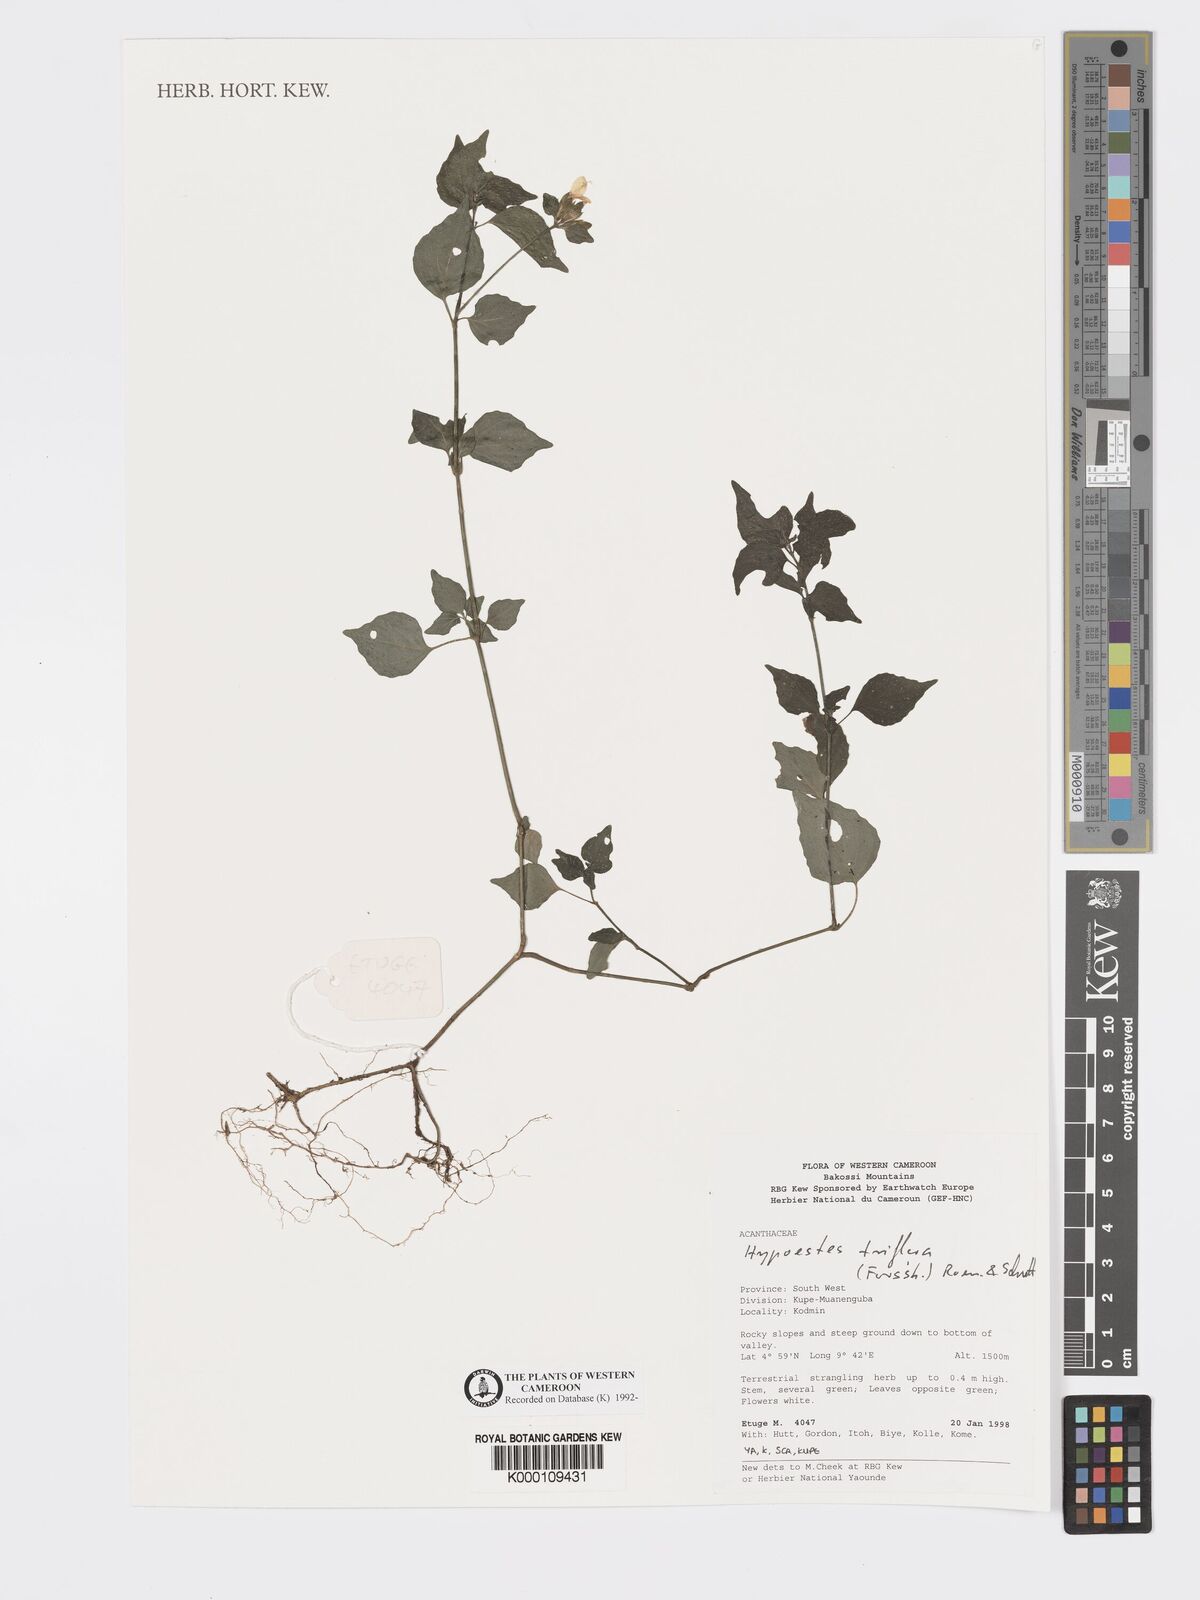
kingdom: Plantae
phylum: Tracheophyta
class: Magnoliopsida
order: Lamiales
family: Acanthaceae
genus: Hypoestes
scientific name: Hypoestes triflora
